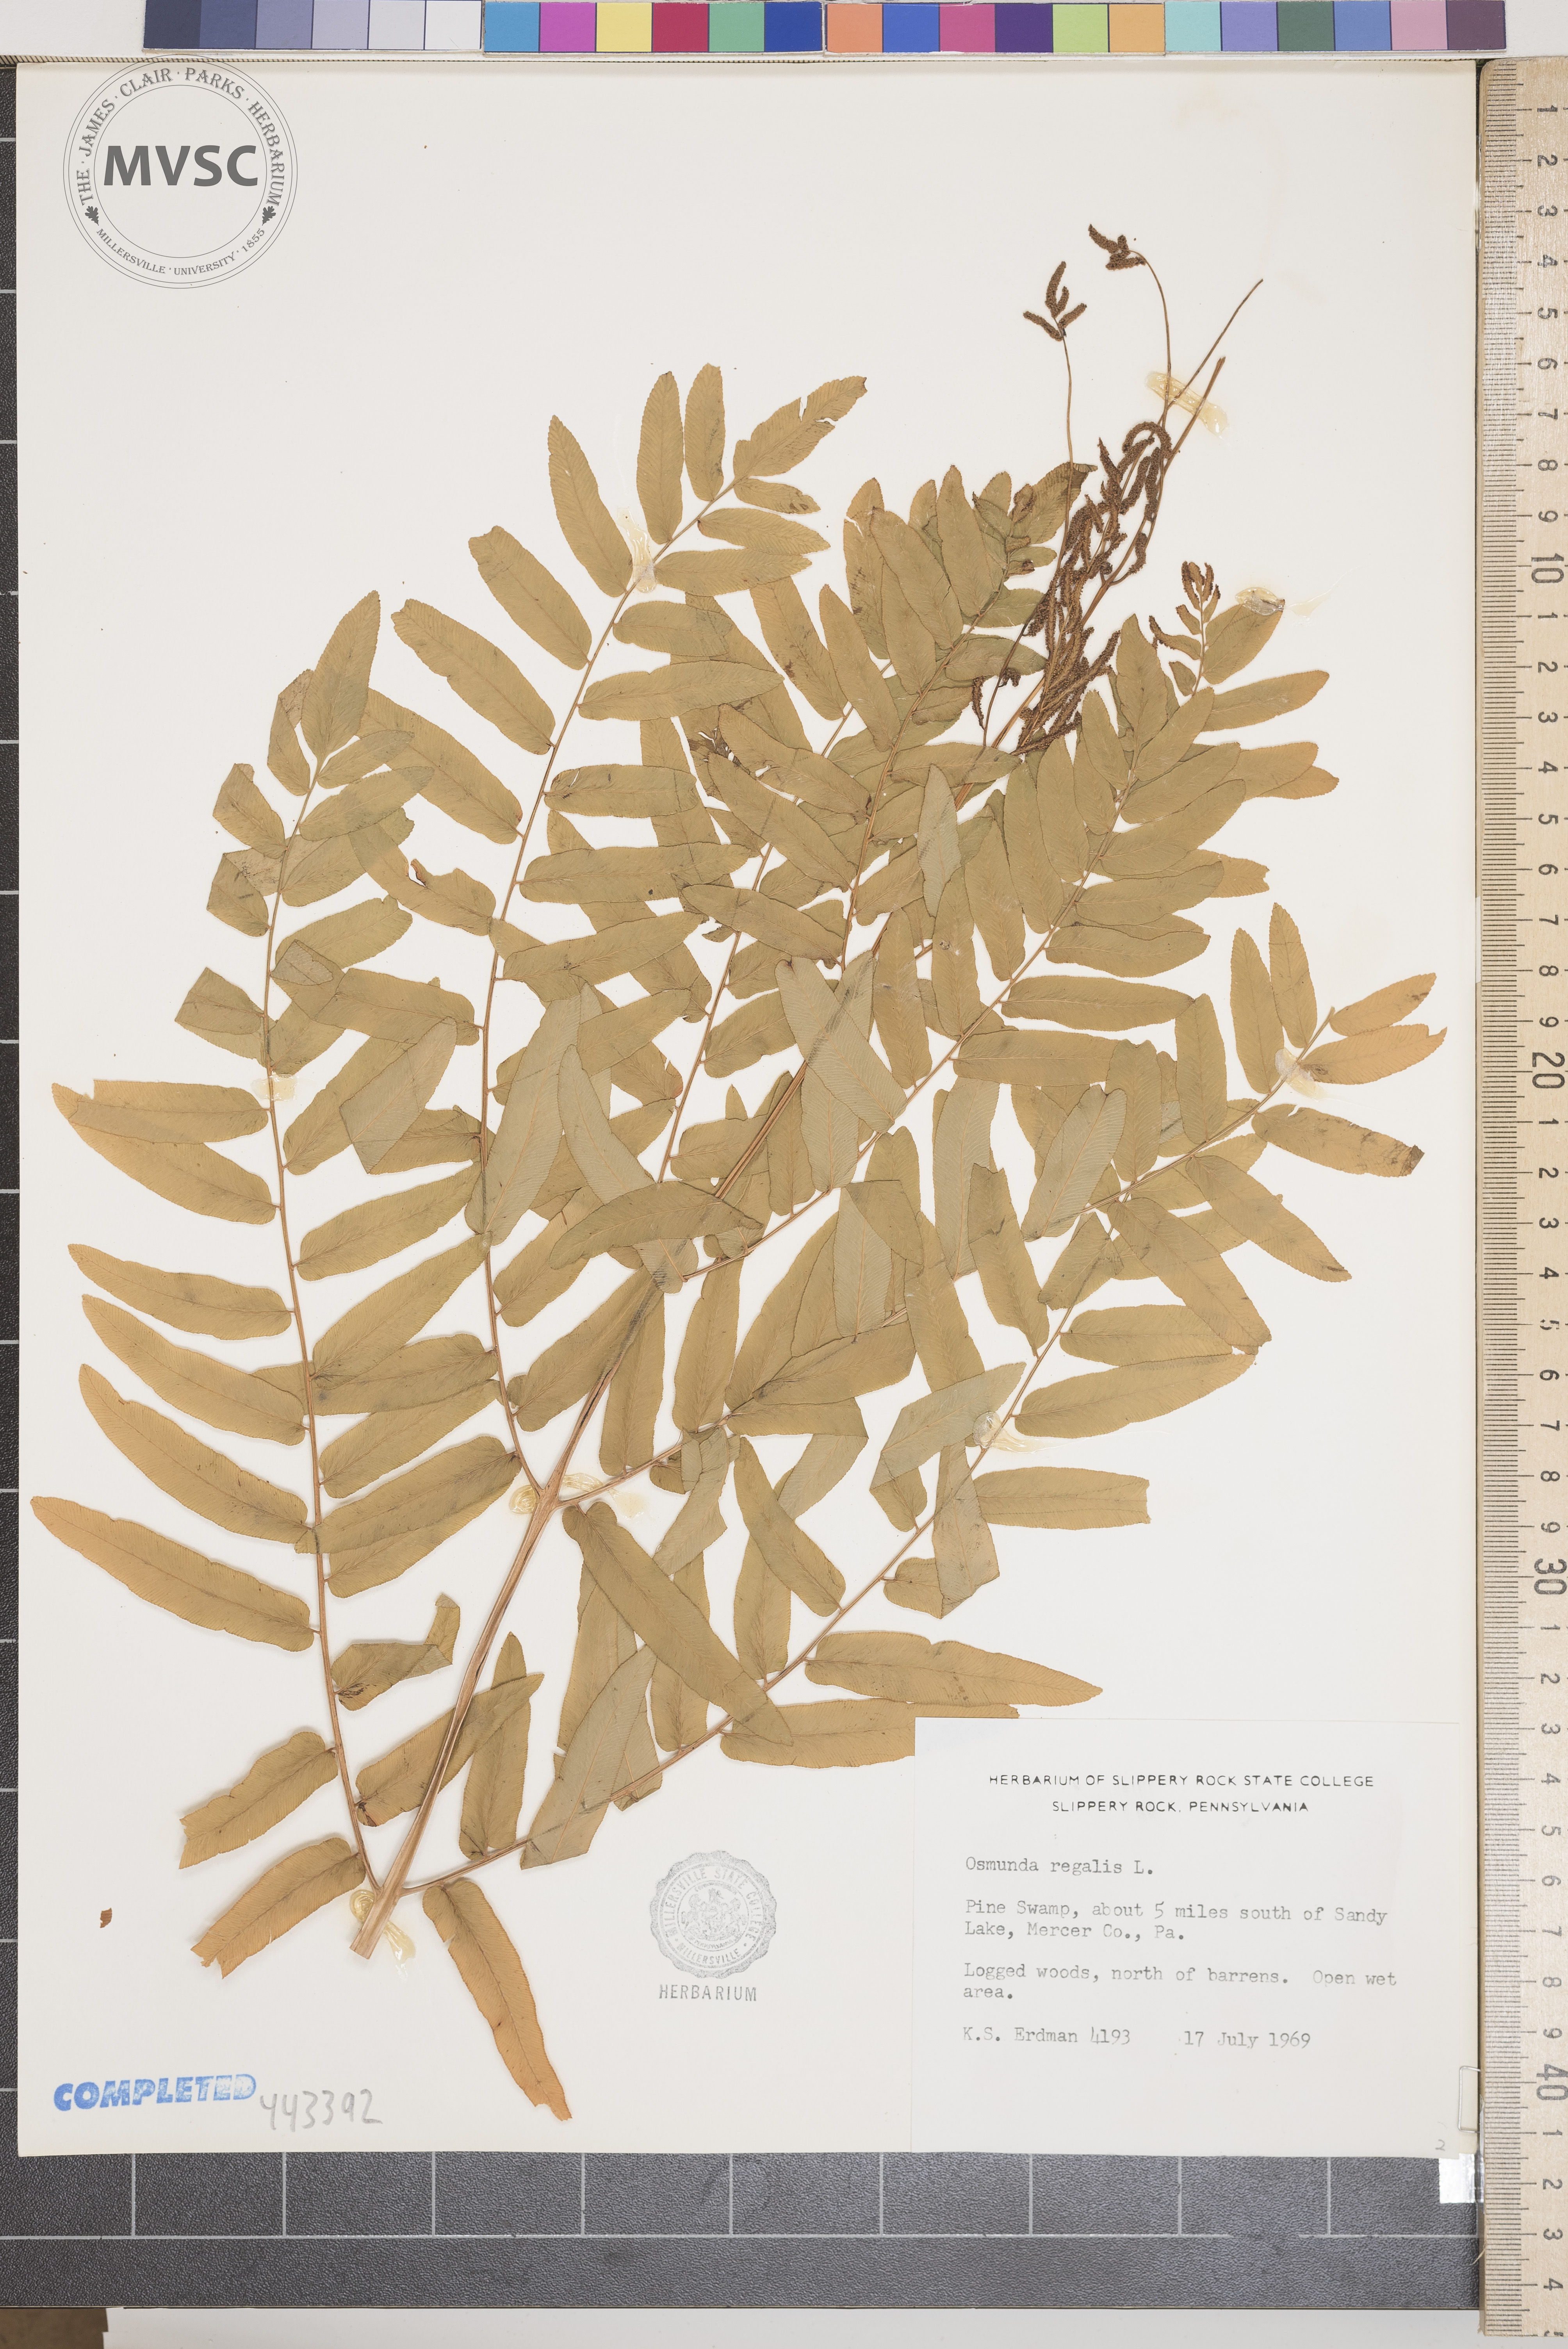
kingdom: Plantae
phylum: Tracheophyta
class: Polypodiopsida
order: Osmundales
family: Osmundaceae
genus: Osmunda
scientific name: Osmunda regalis
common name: Royal fern
